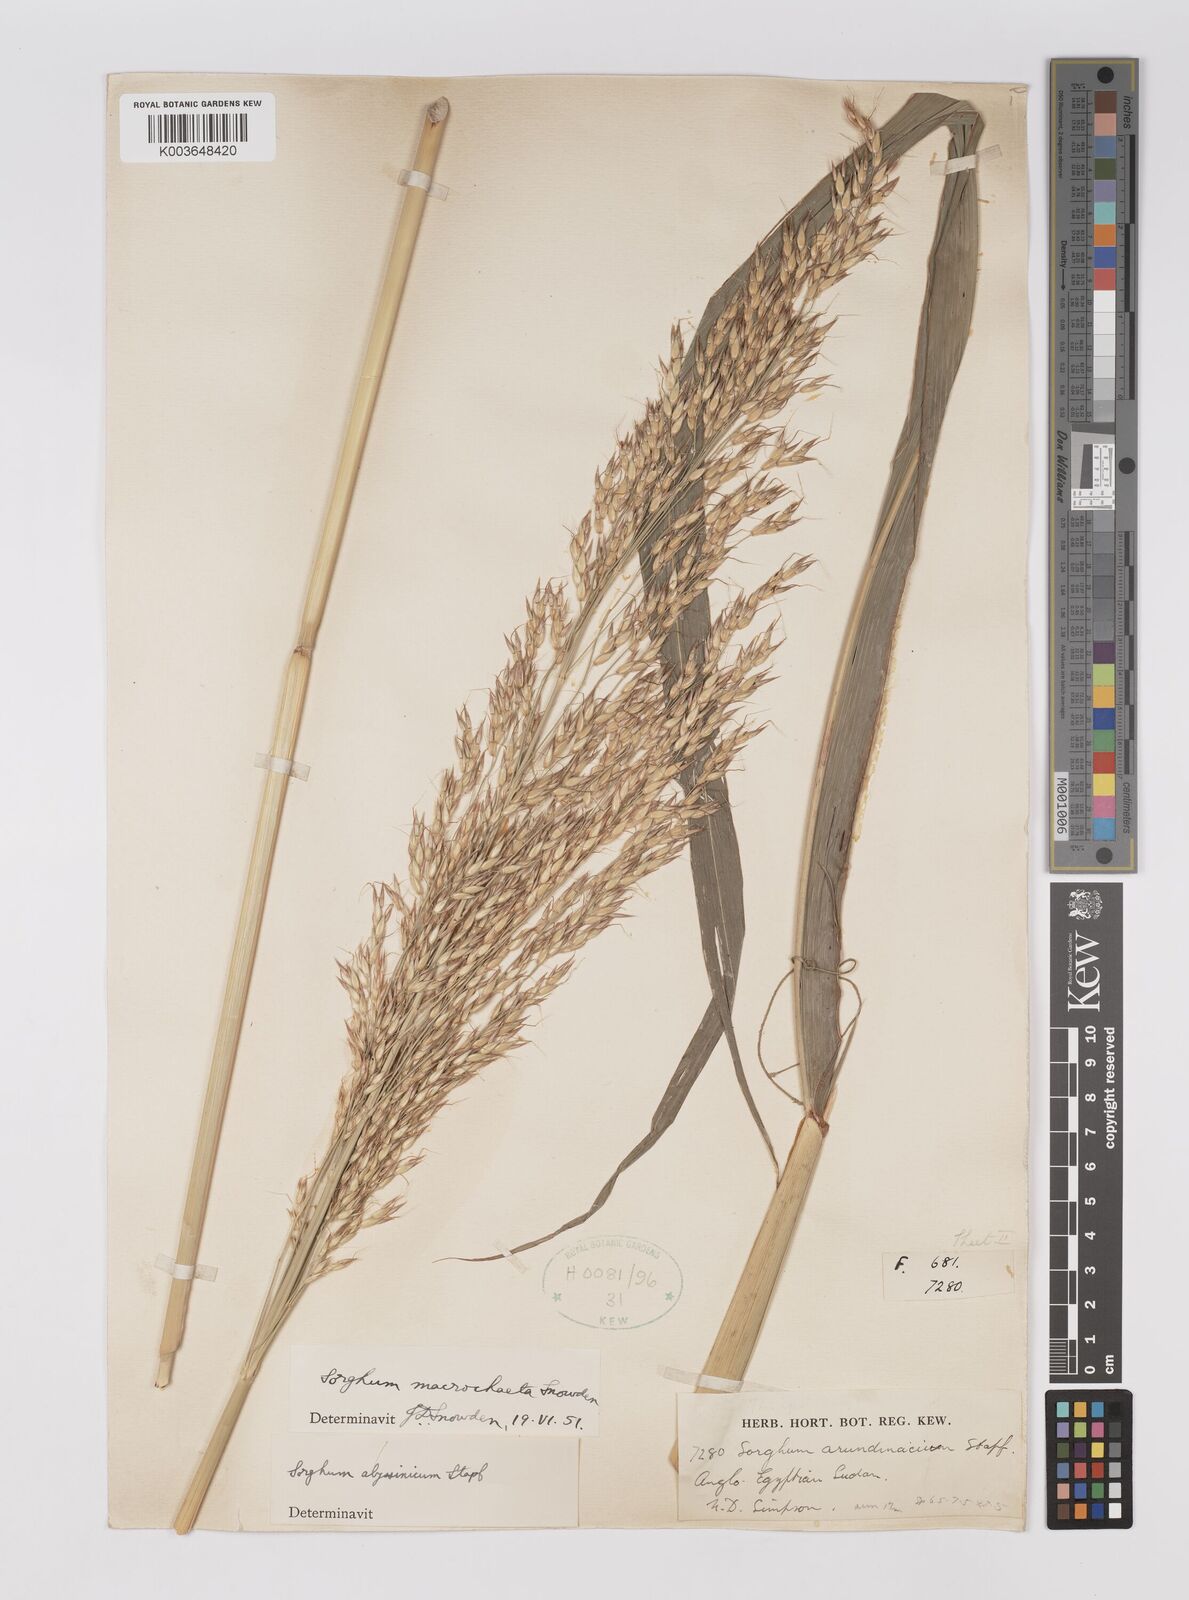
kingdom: Plantae
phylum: Tracheophyta
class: Liliopsida
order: Poales
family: Poaceae
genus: Sorghum
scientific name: Sorghum arundinaceum
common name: Sorghum
